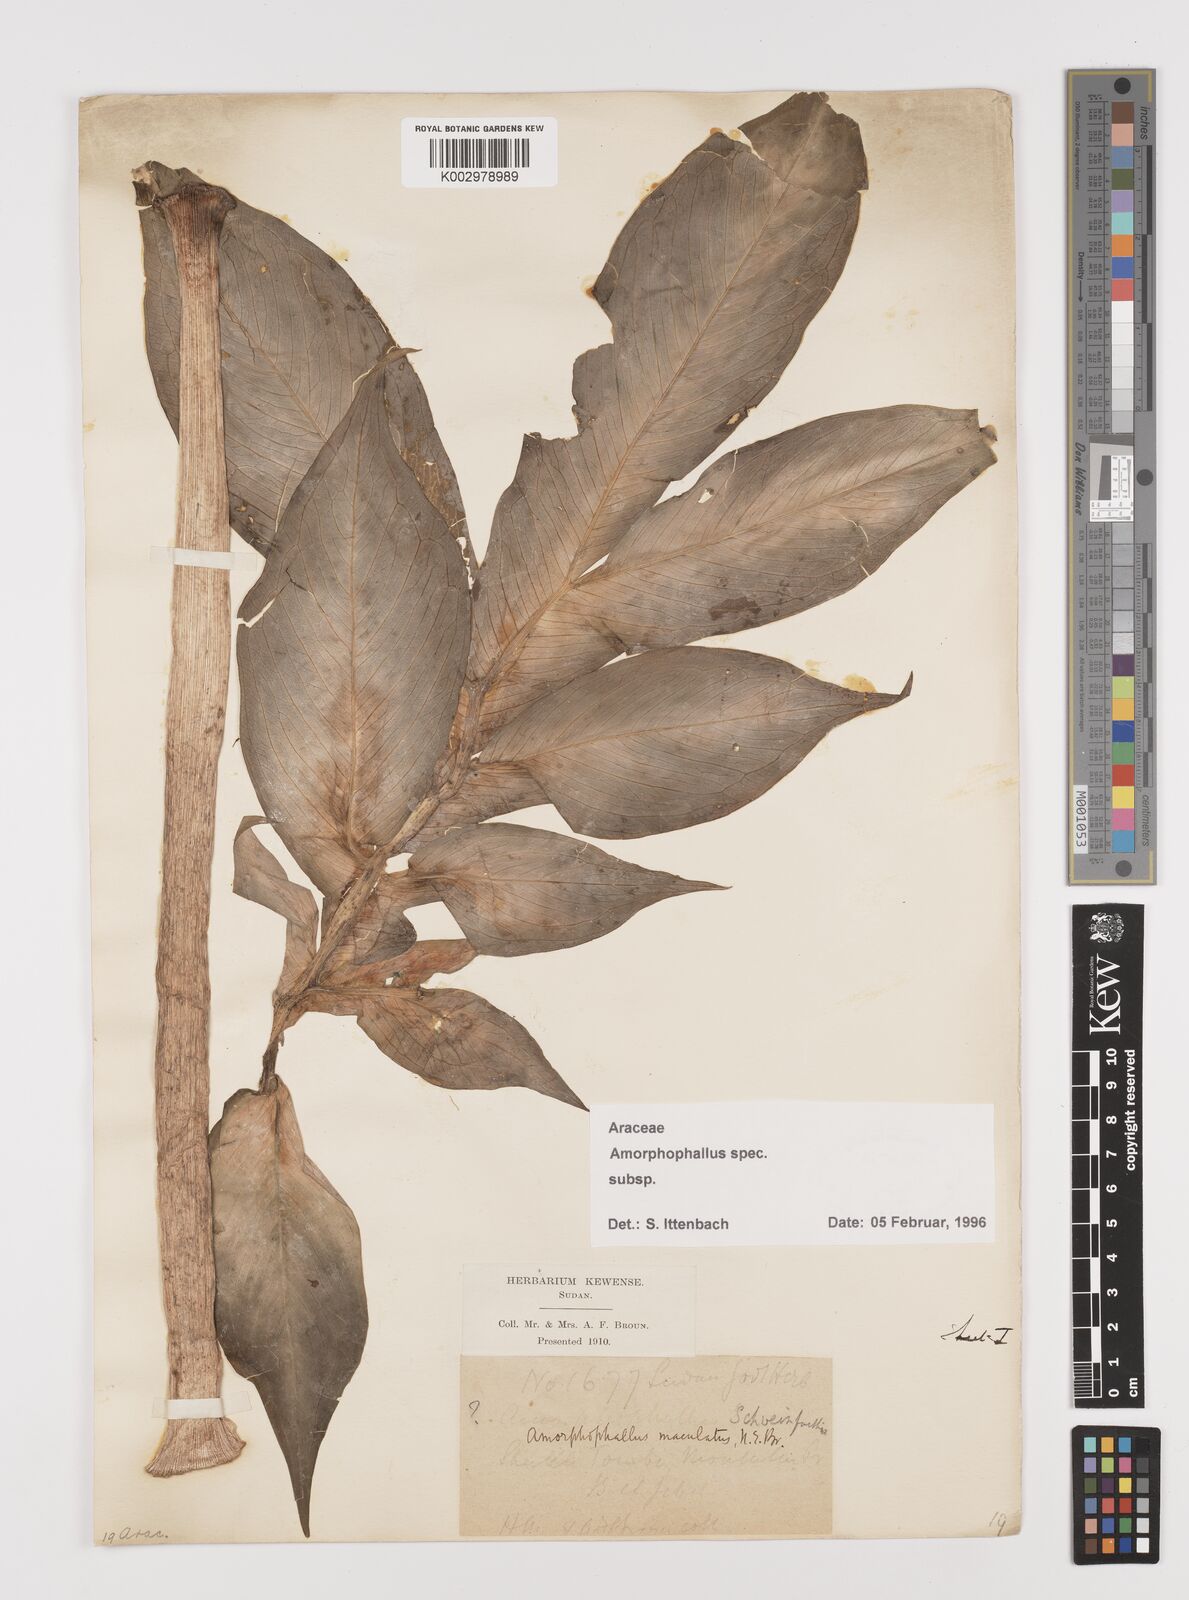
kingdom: Plantae
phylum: Tracheophyta
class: Liliopsida
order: Alismatales
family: Araceae
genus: Amorphophallus
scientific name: Amorphophallus
